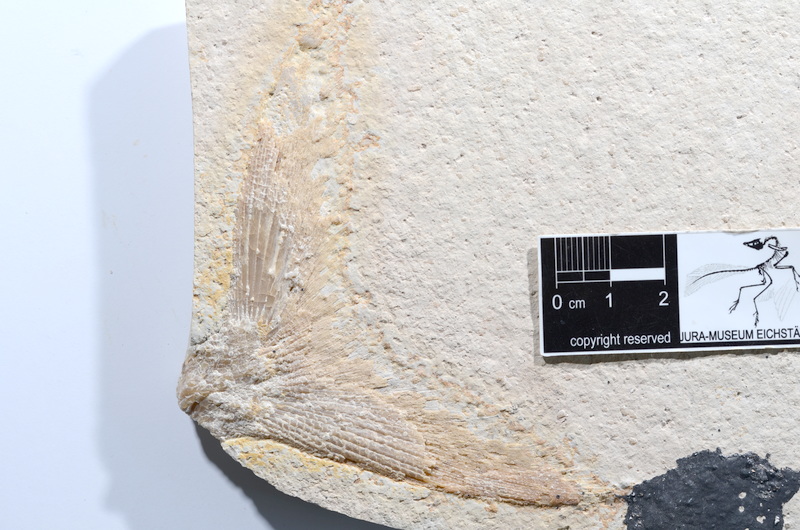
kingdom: Animalia
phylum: Chordata
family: Ankylophoridae
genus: Siemensichthys
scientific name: Siemensichthys macrocephalus
